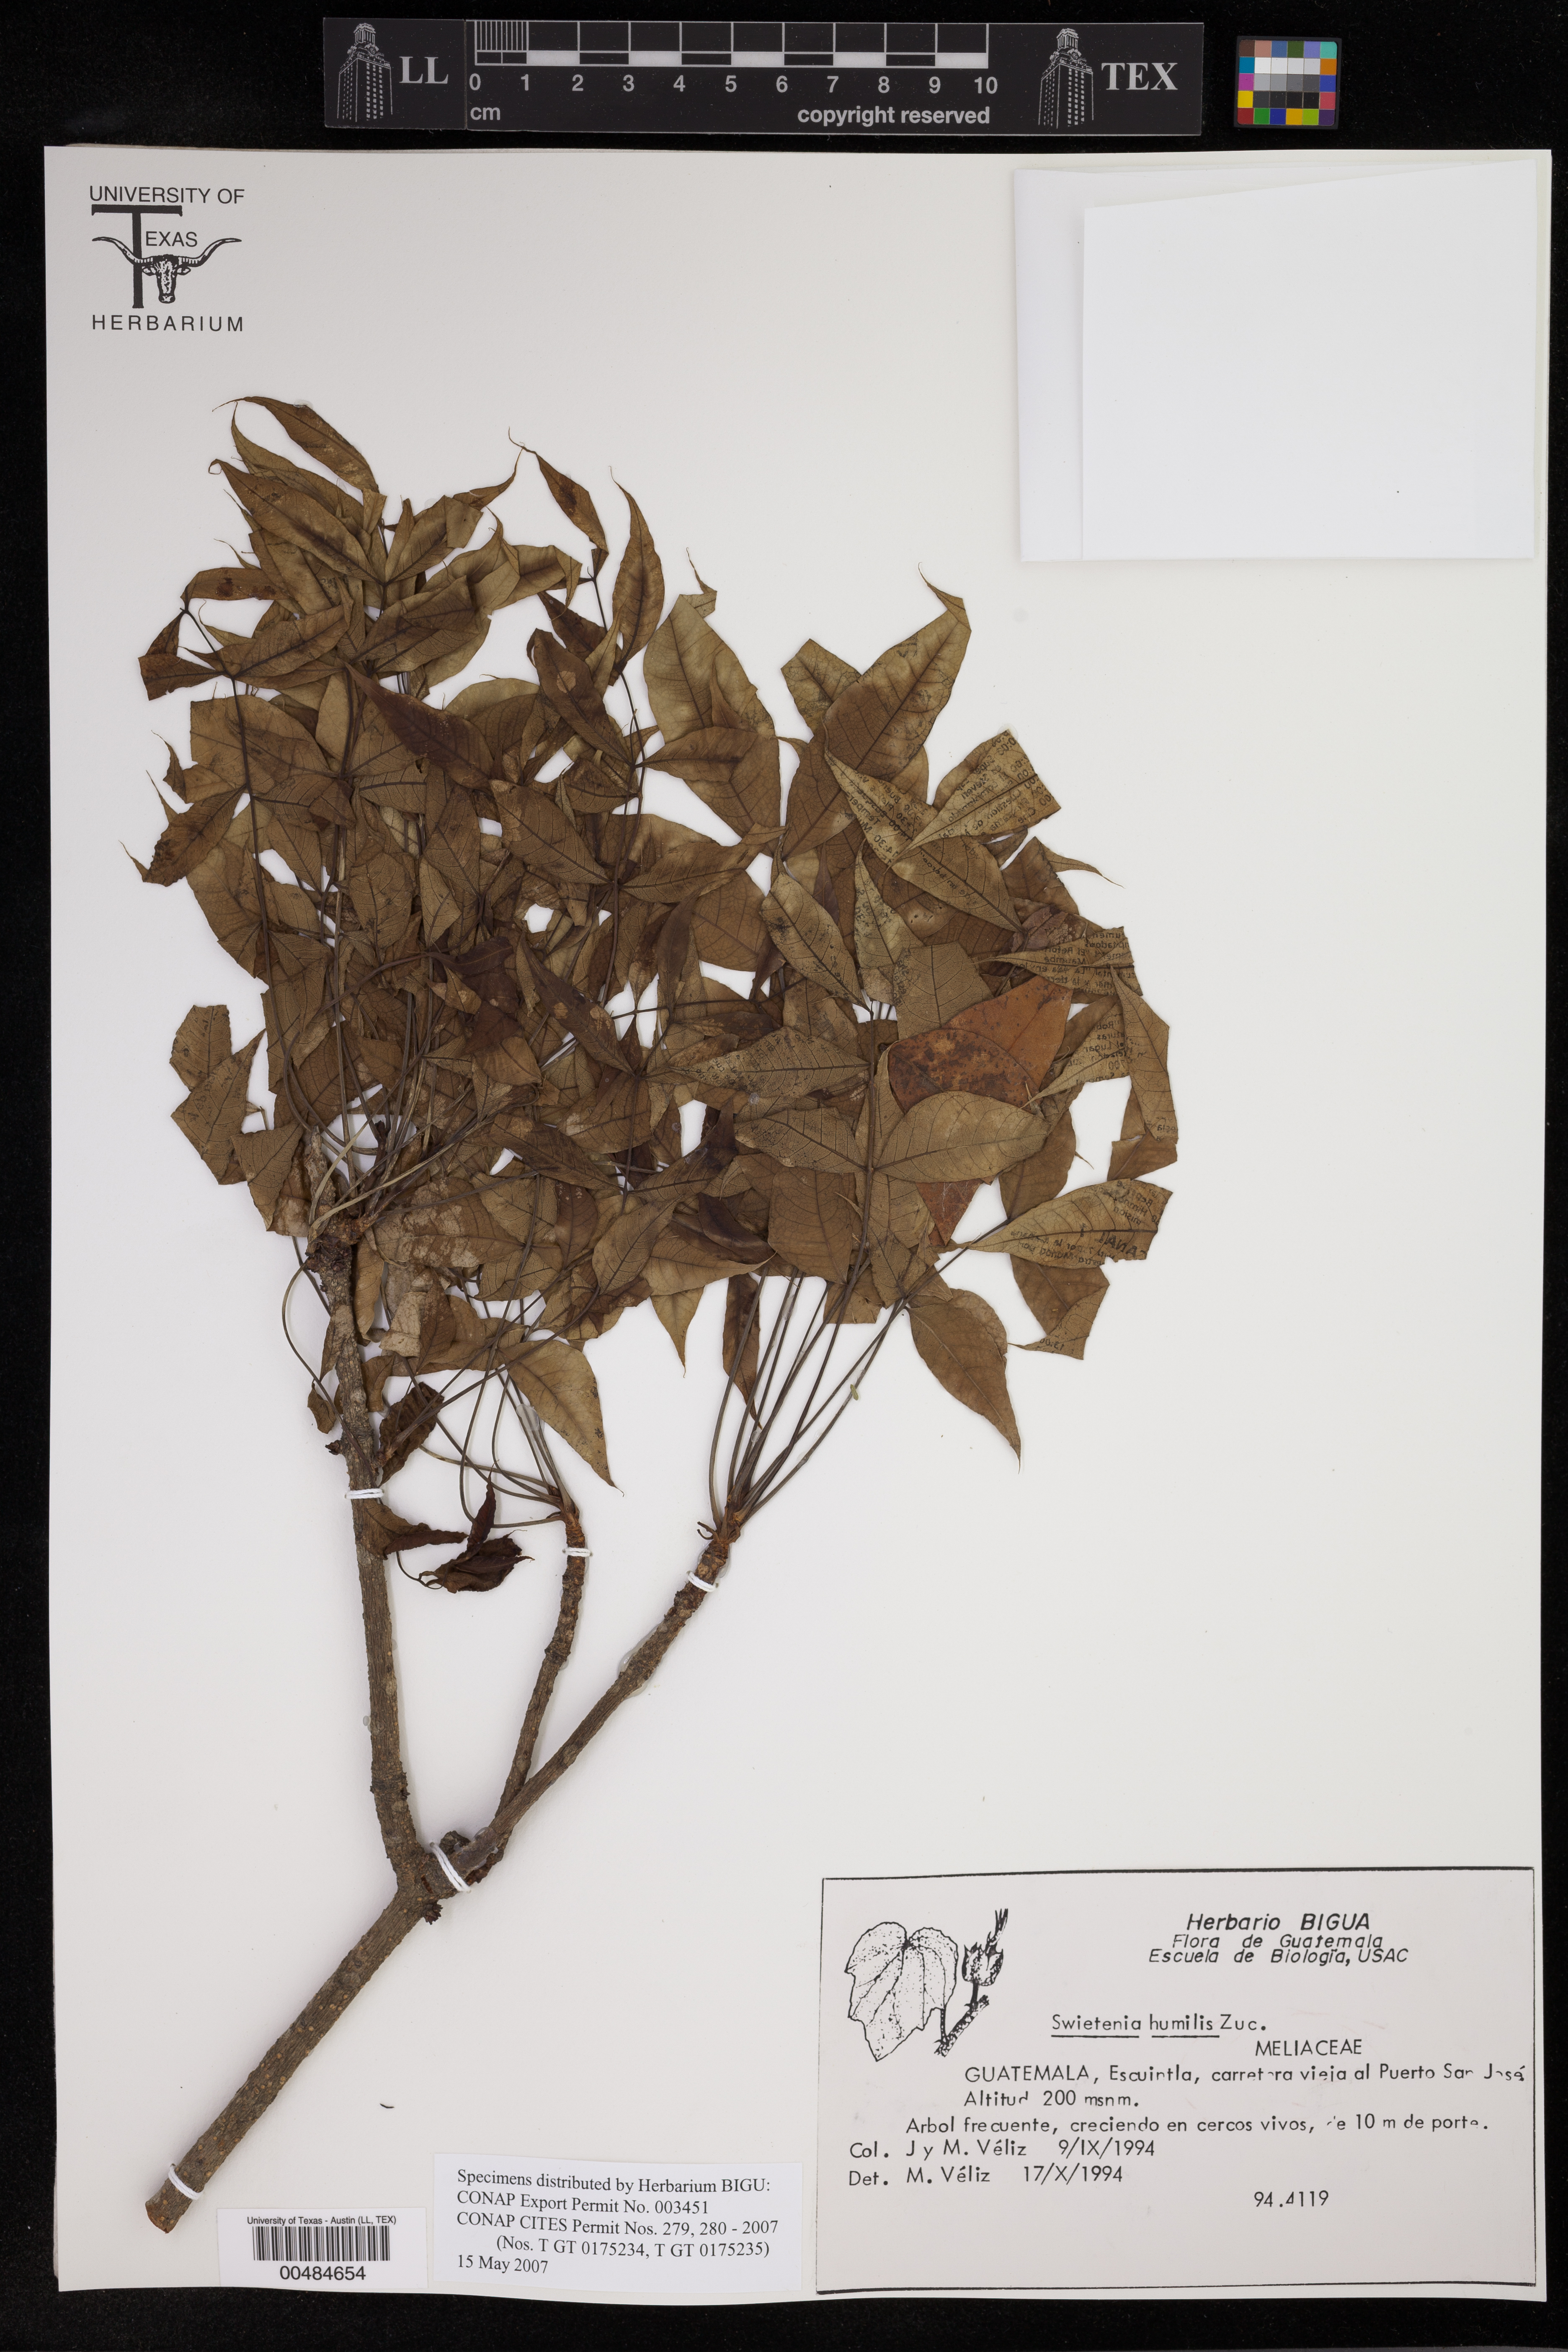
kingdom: Plantae
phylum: Tracheophyta
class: Magnoliopsida
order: Sapindales
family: Meliaceae
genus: Swietenia
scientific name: Swietenia humilis
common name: Pacific coast mahogany
